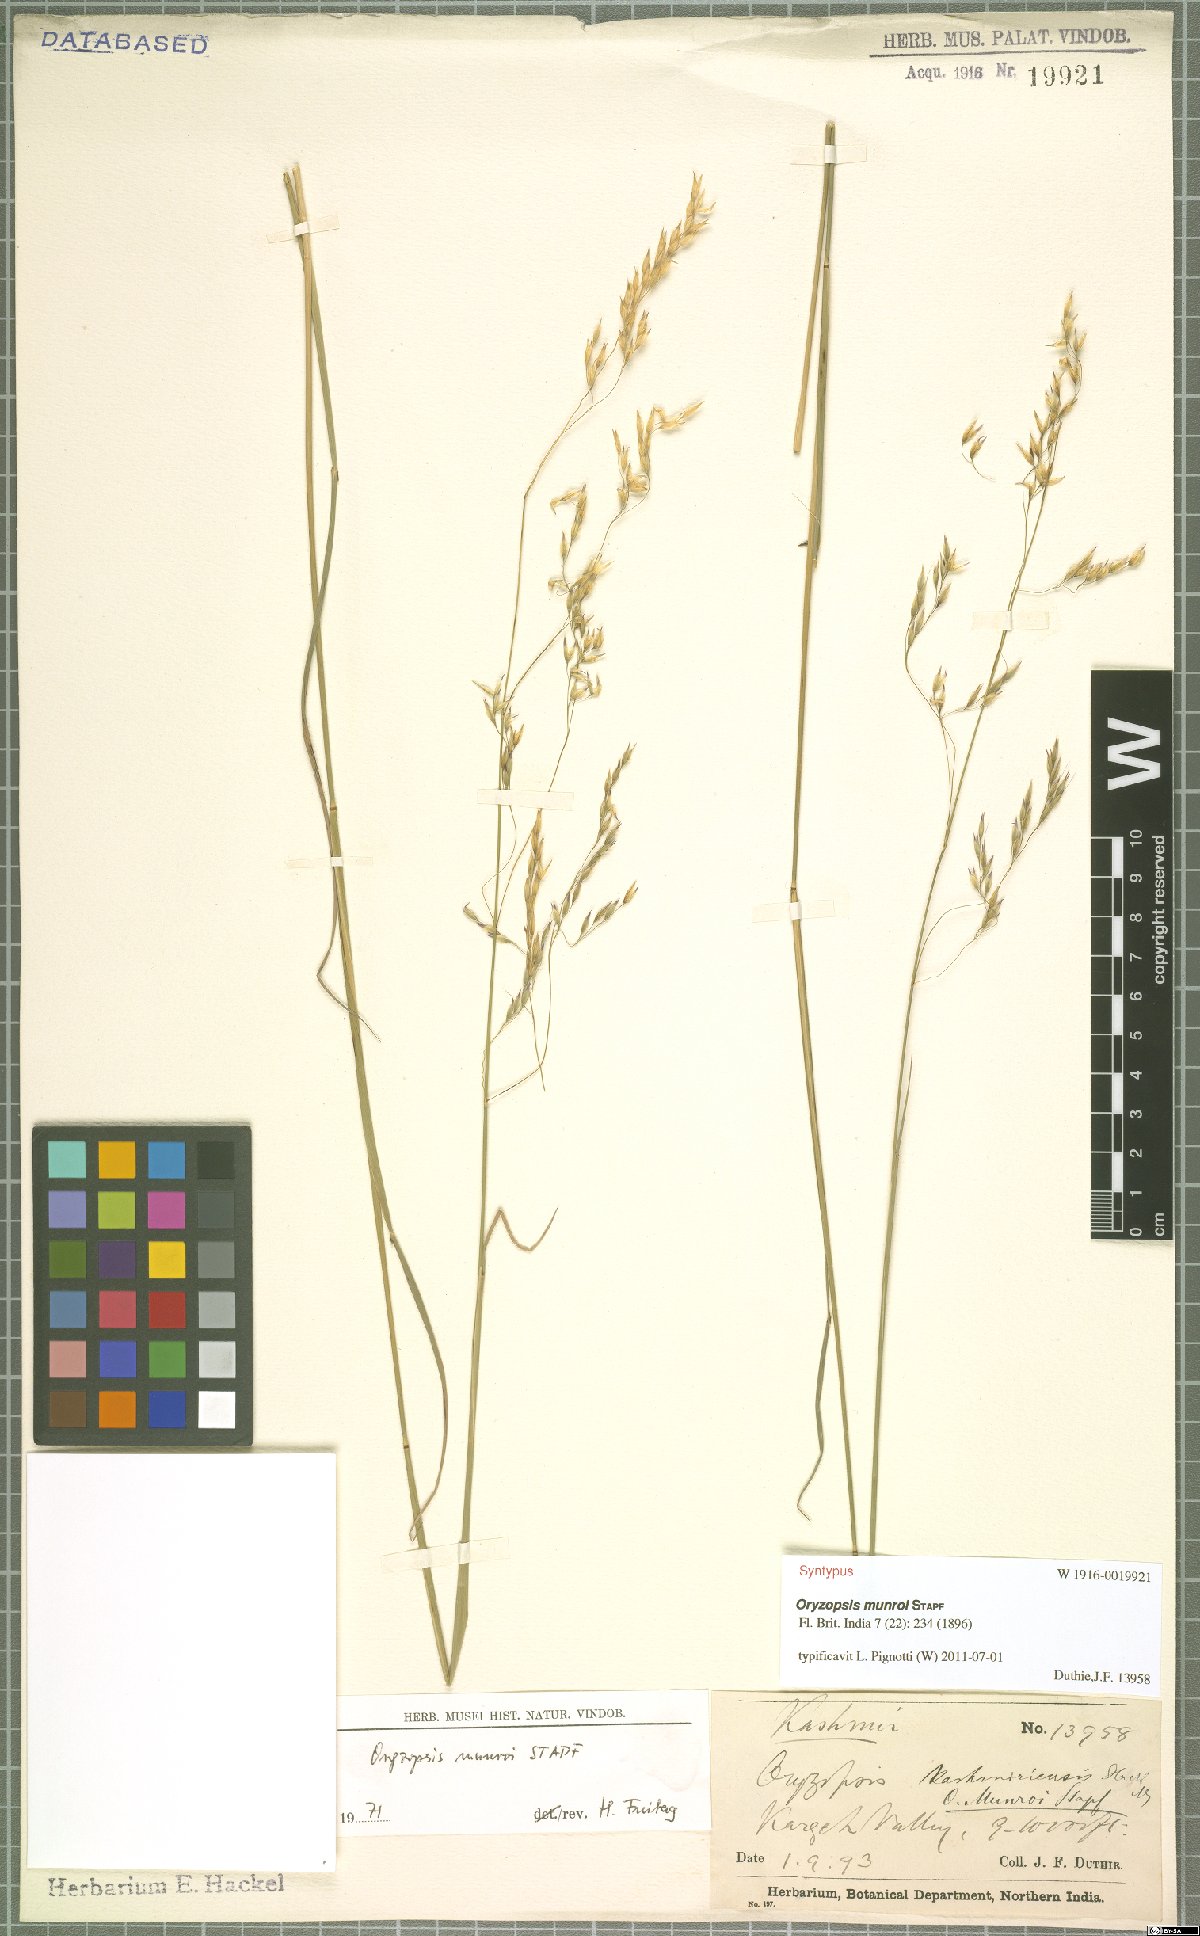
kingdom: Plantae
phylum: Tracheophyta
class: Liliopsida
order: Poales
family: Poaceae
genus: Piptatherum
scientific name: Piptatherum munroi
